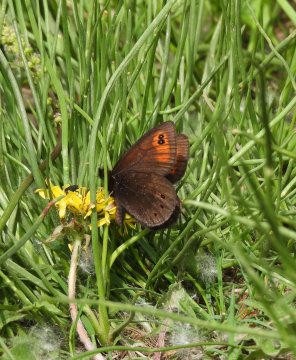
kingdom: Animalia
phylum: Arthropoda
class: Insecta
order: Lepidoptera
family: Nymphalidae
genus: Erebia
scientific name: Erebia epipsodea
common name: Common Alpine
